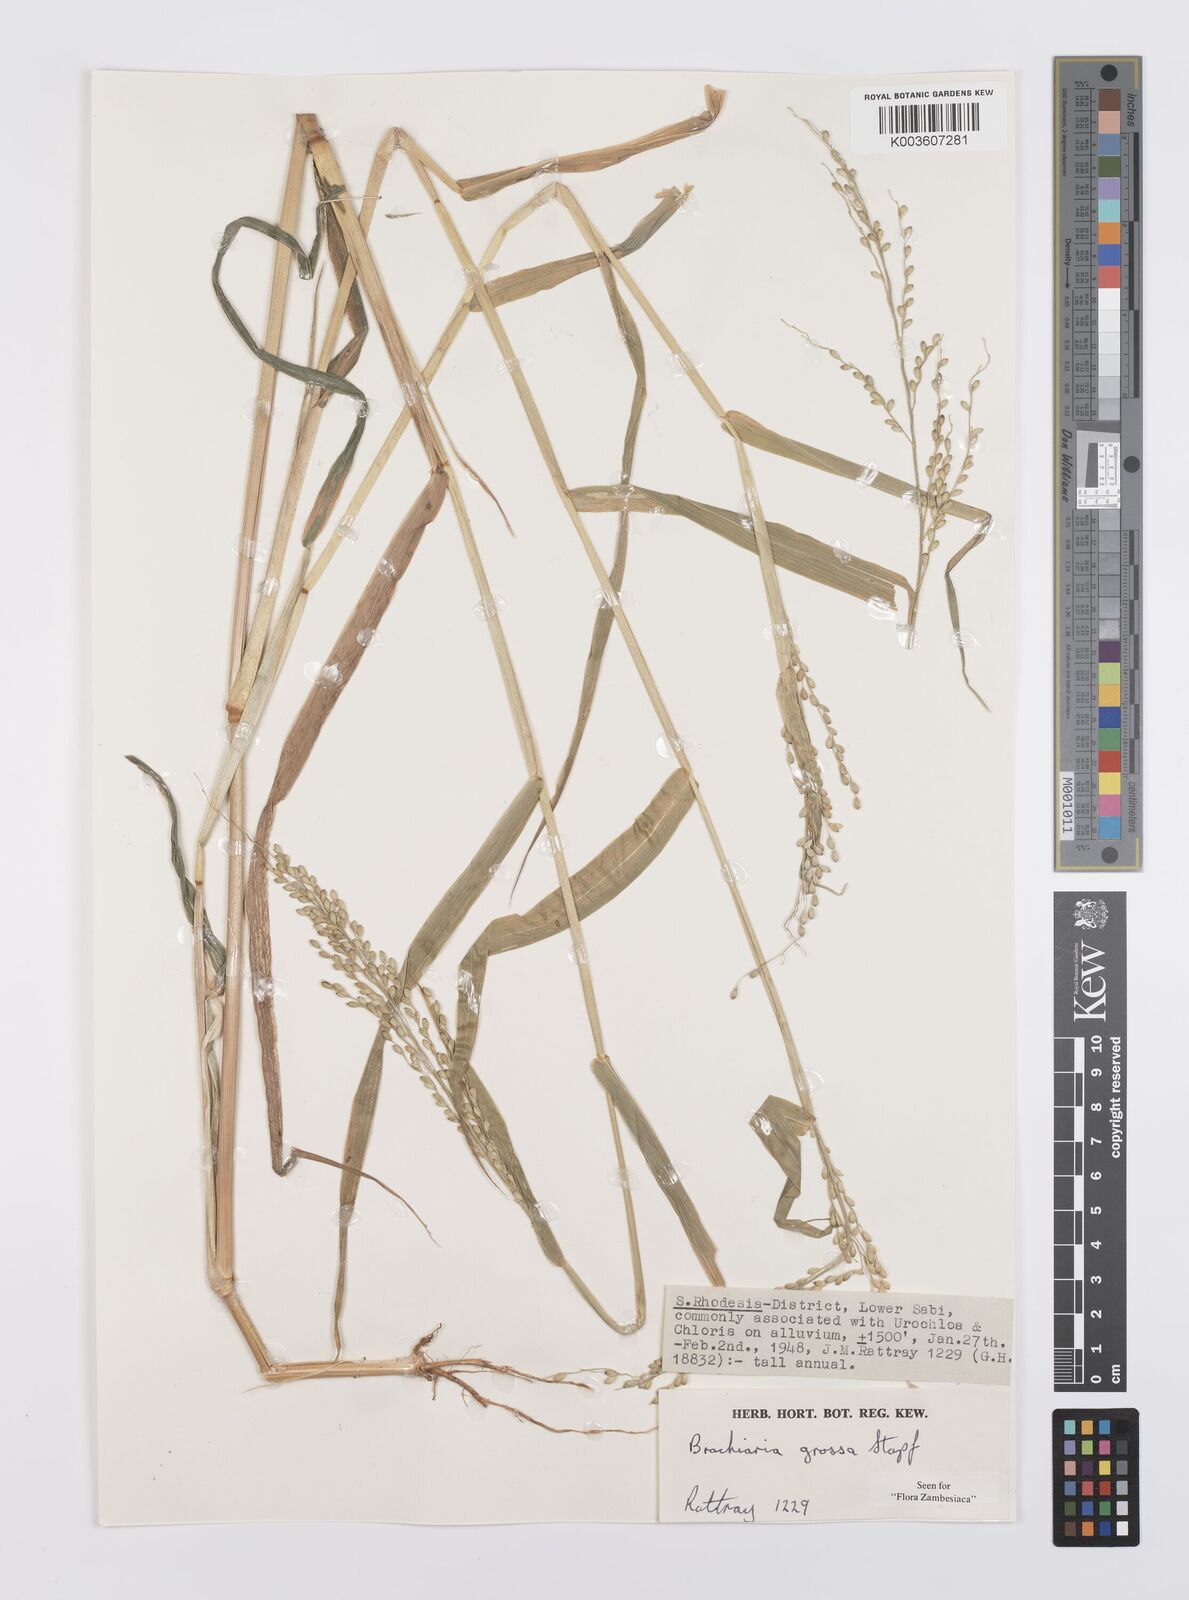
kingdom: Plantae
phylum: Tracheophyta
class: Liliopsida
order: Poales
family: Poaceae
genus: Urochloa
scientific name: Urochloa Brachiaria grossa
